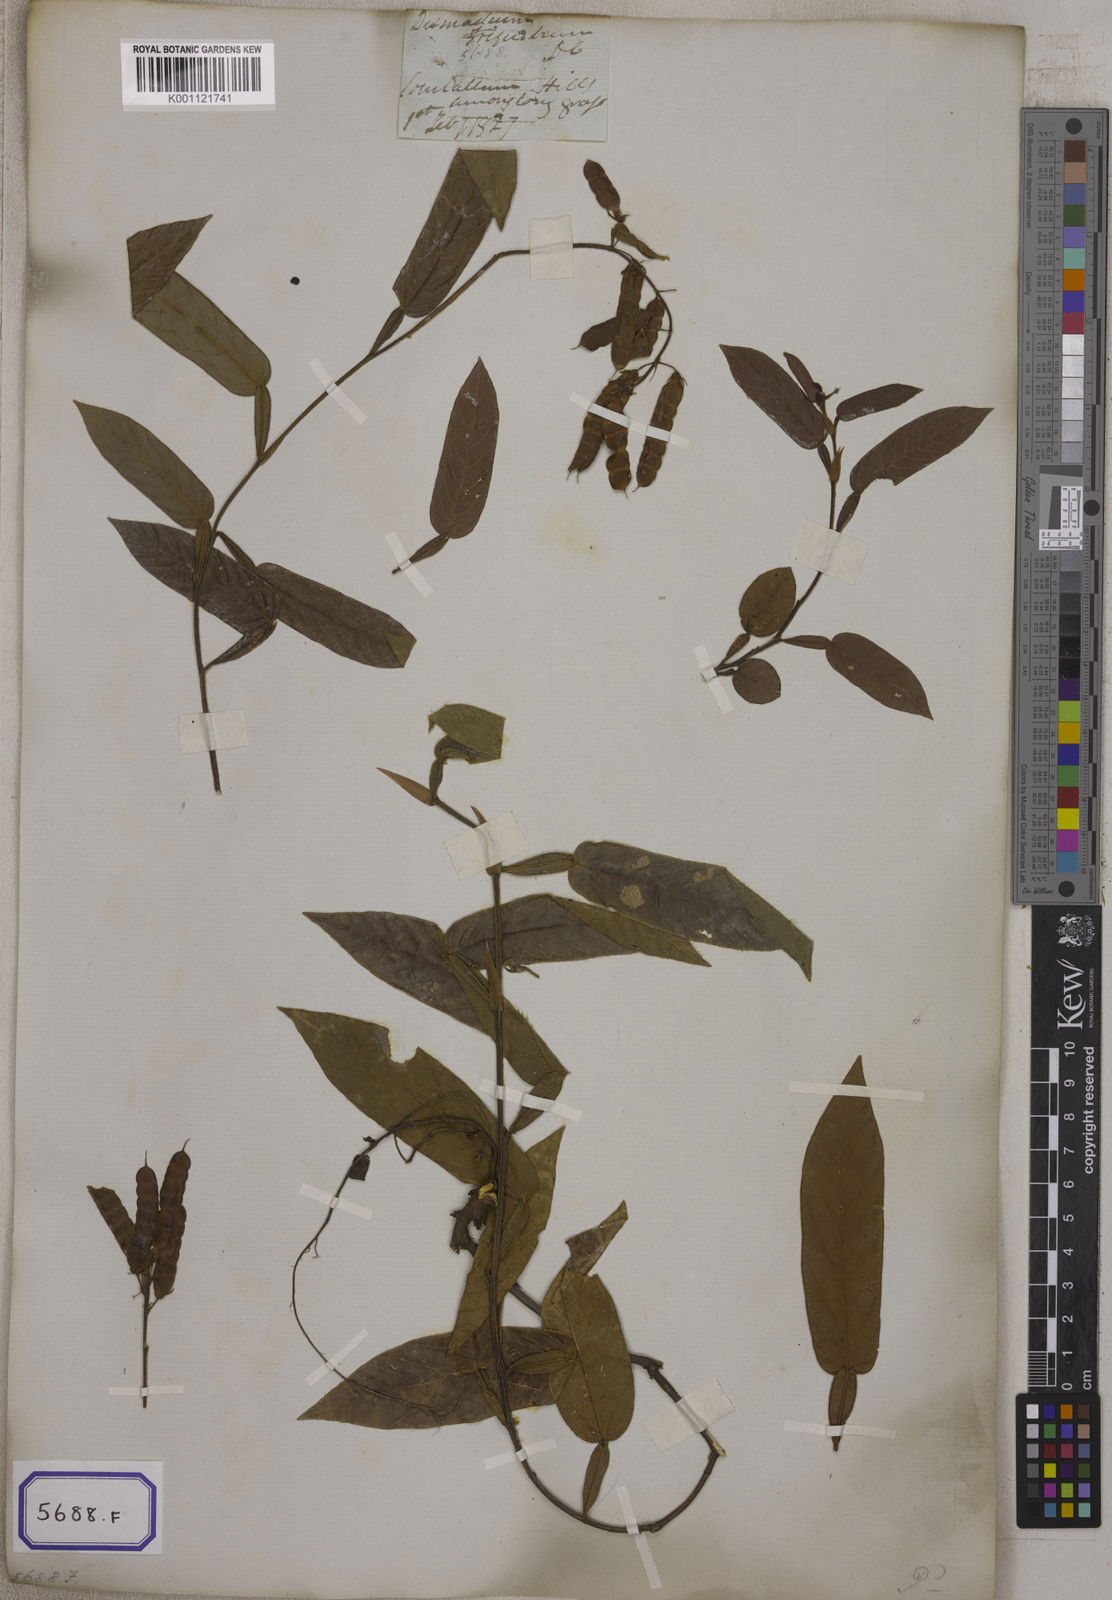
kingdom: Plantae
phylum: Tracheophyta
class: Magnoliopsida
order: Fabales
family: Fabaceae
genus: Tadehagi
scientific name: Tadehagi triquetrum
